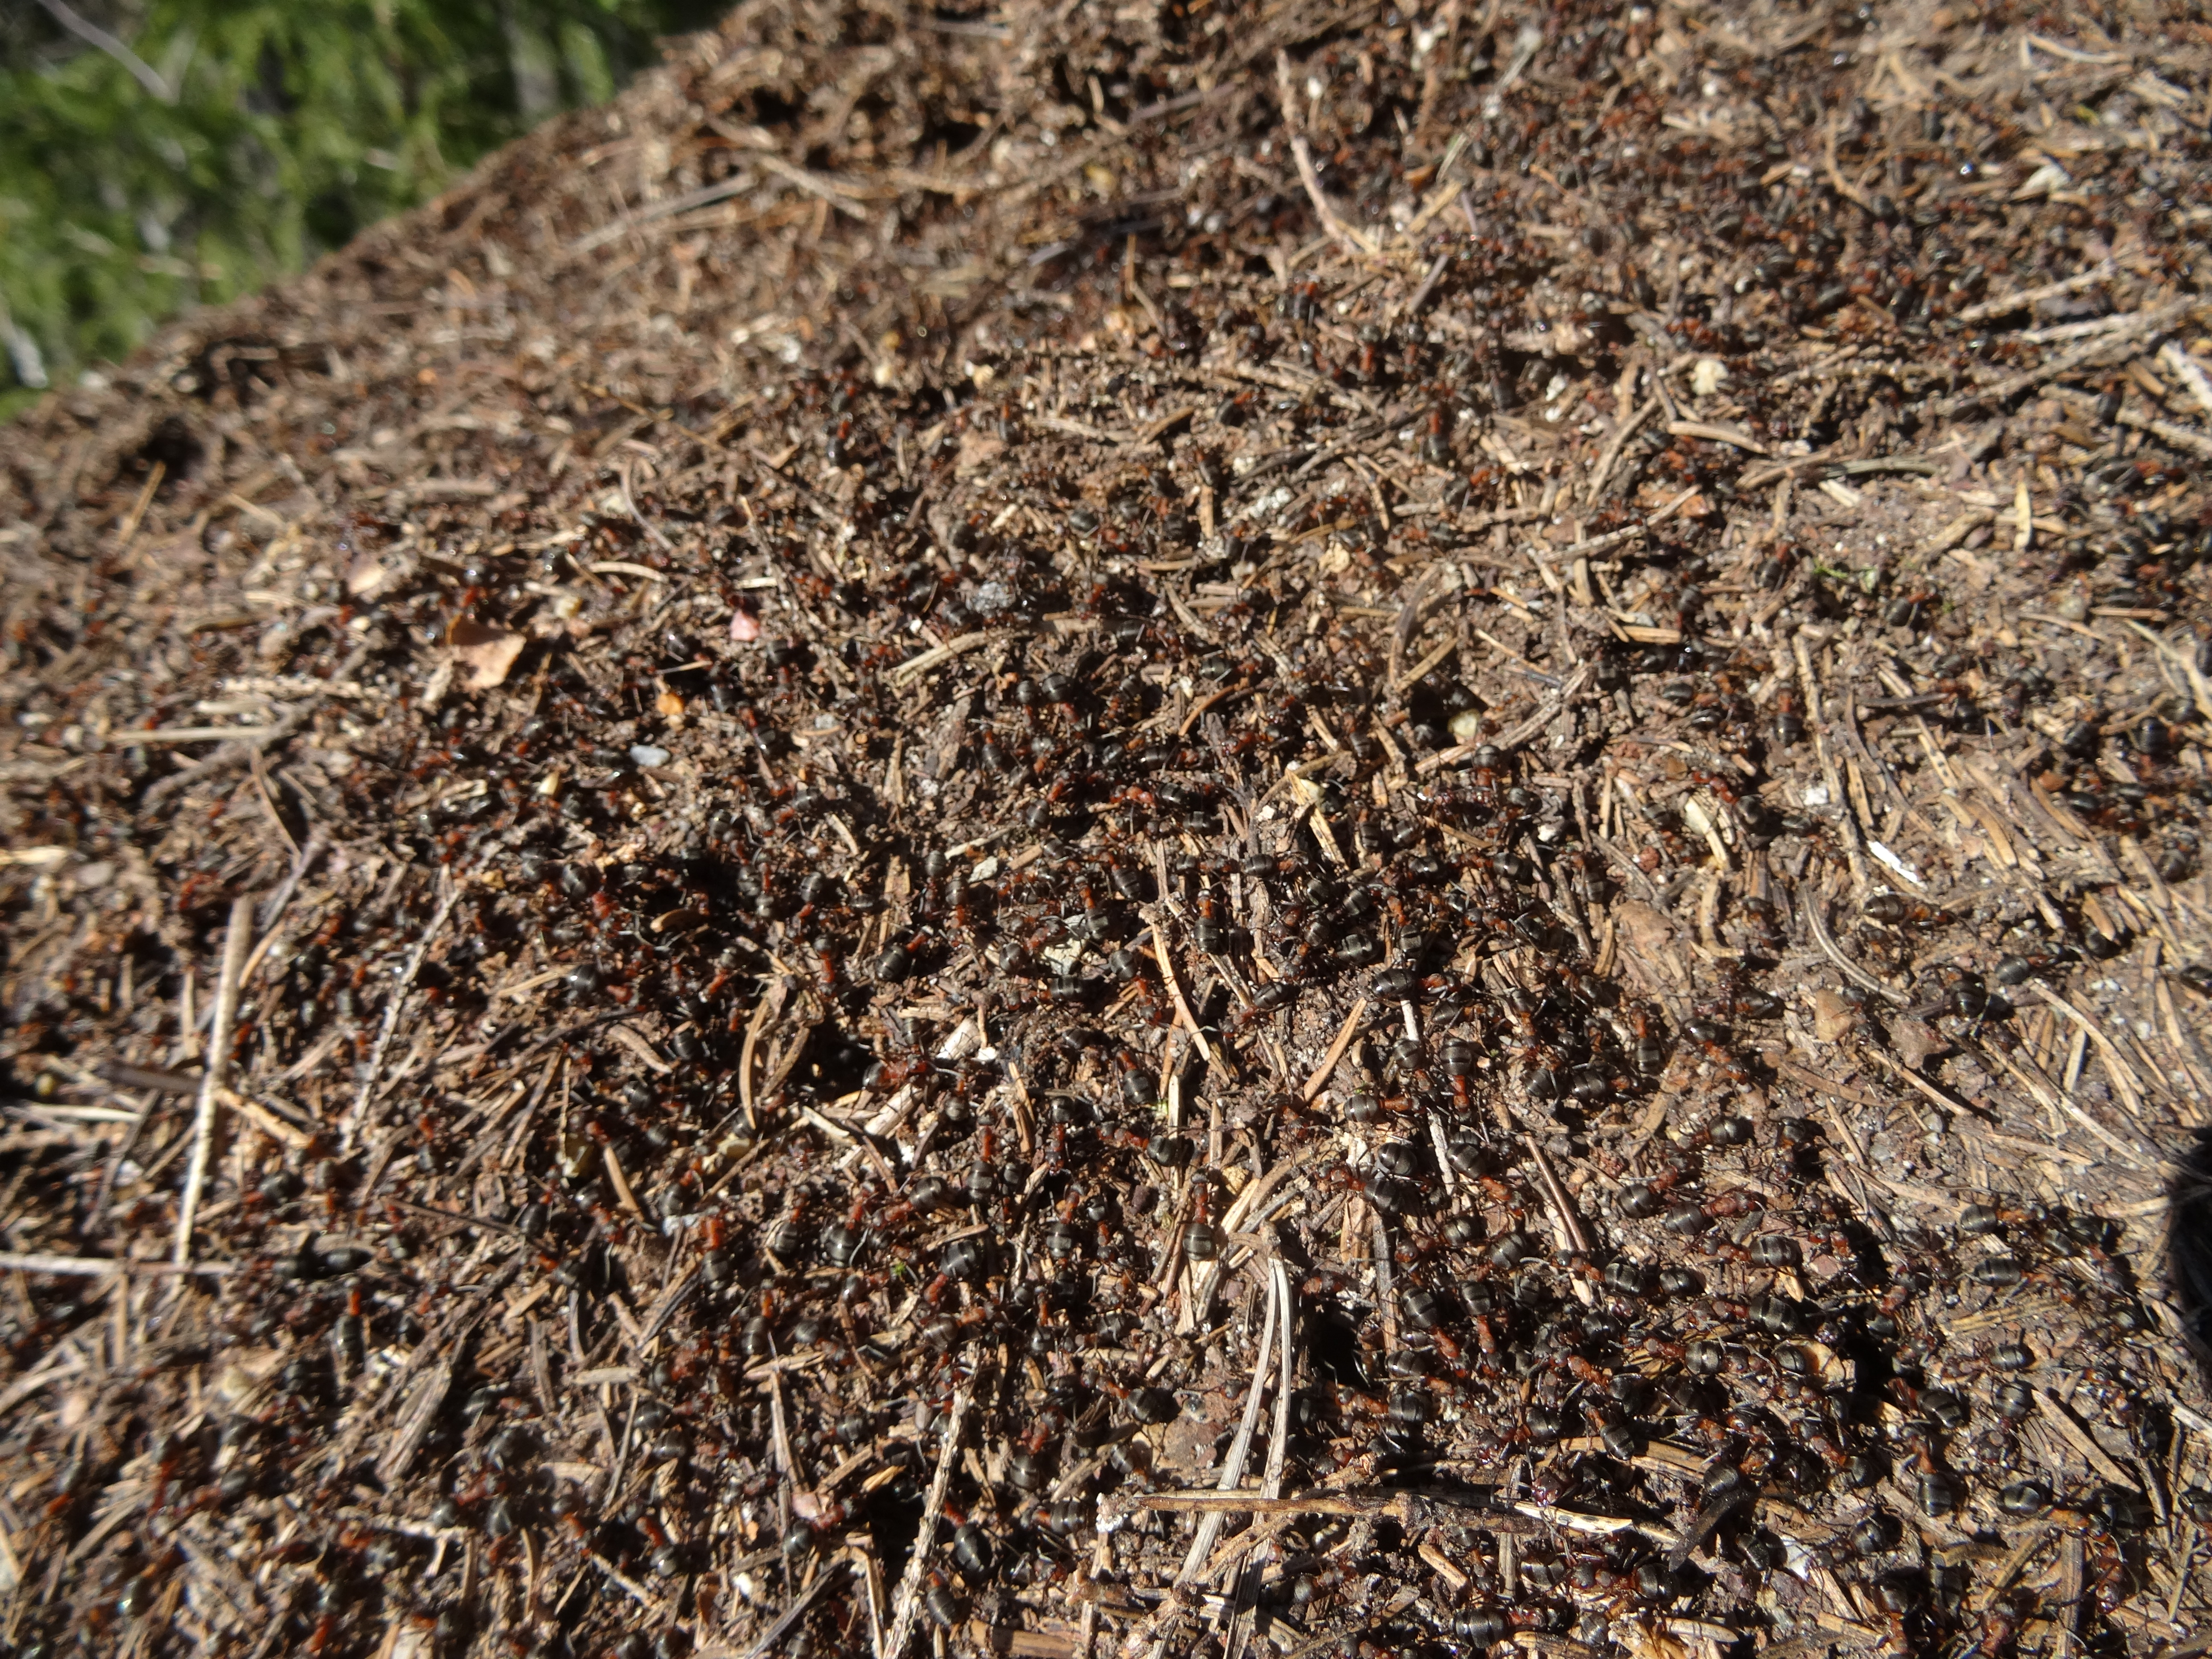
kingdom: Animalia
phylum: Arthropoda
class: Insecta
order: Hymenoptera
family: Formicidae
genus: Formica
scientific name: Formica
